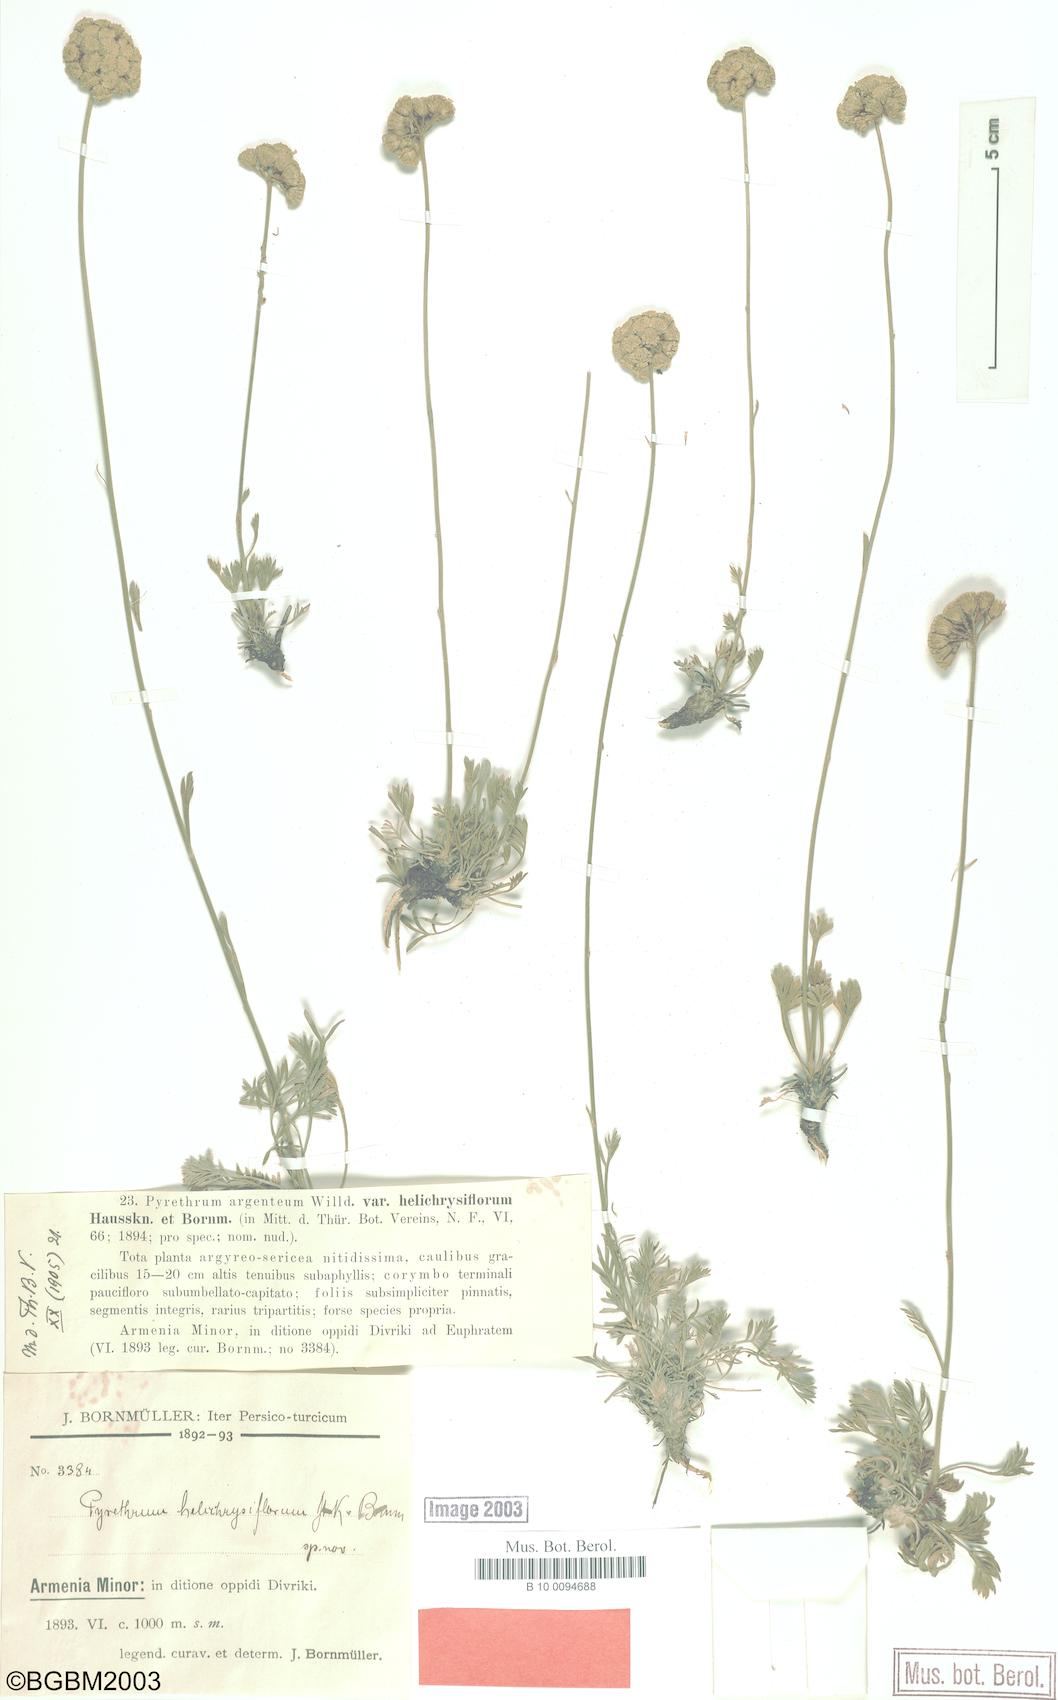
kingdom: Plantae
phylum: Tracheophyta
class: Magnoliopsida
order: Asterales
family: Asteraceae
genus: Tanacetum
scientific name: Tanacetum argenteum
